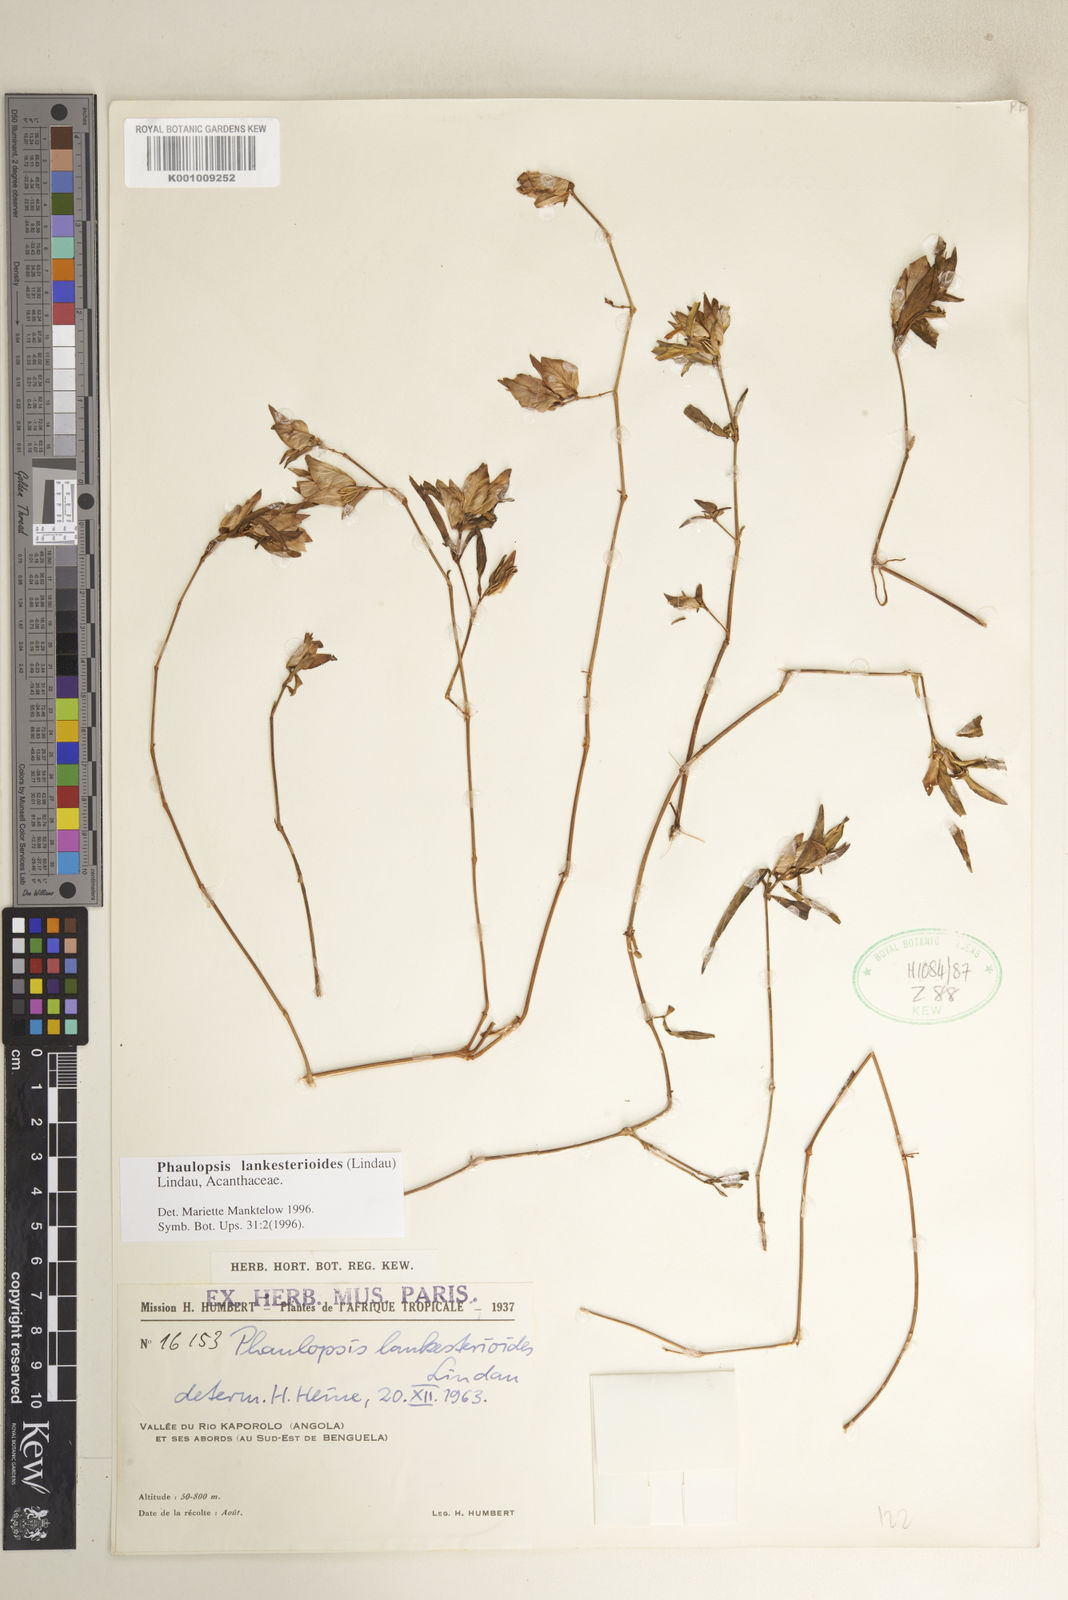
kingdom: Plantae
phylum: Tracheophyta
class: Magnoliopsida
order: Lamiales
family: Acanthaceae
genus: Phaulopsis
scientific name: Phaulopsis lankesterioides
